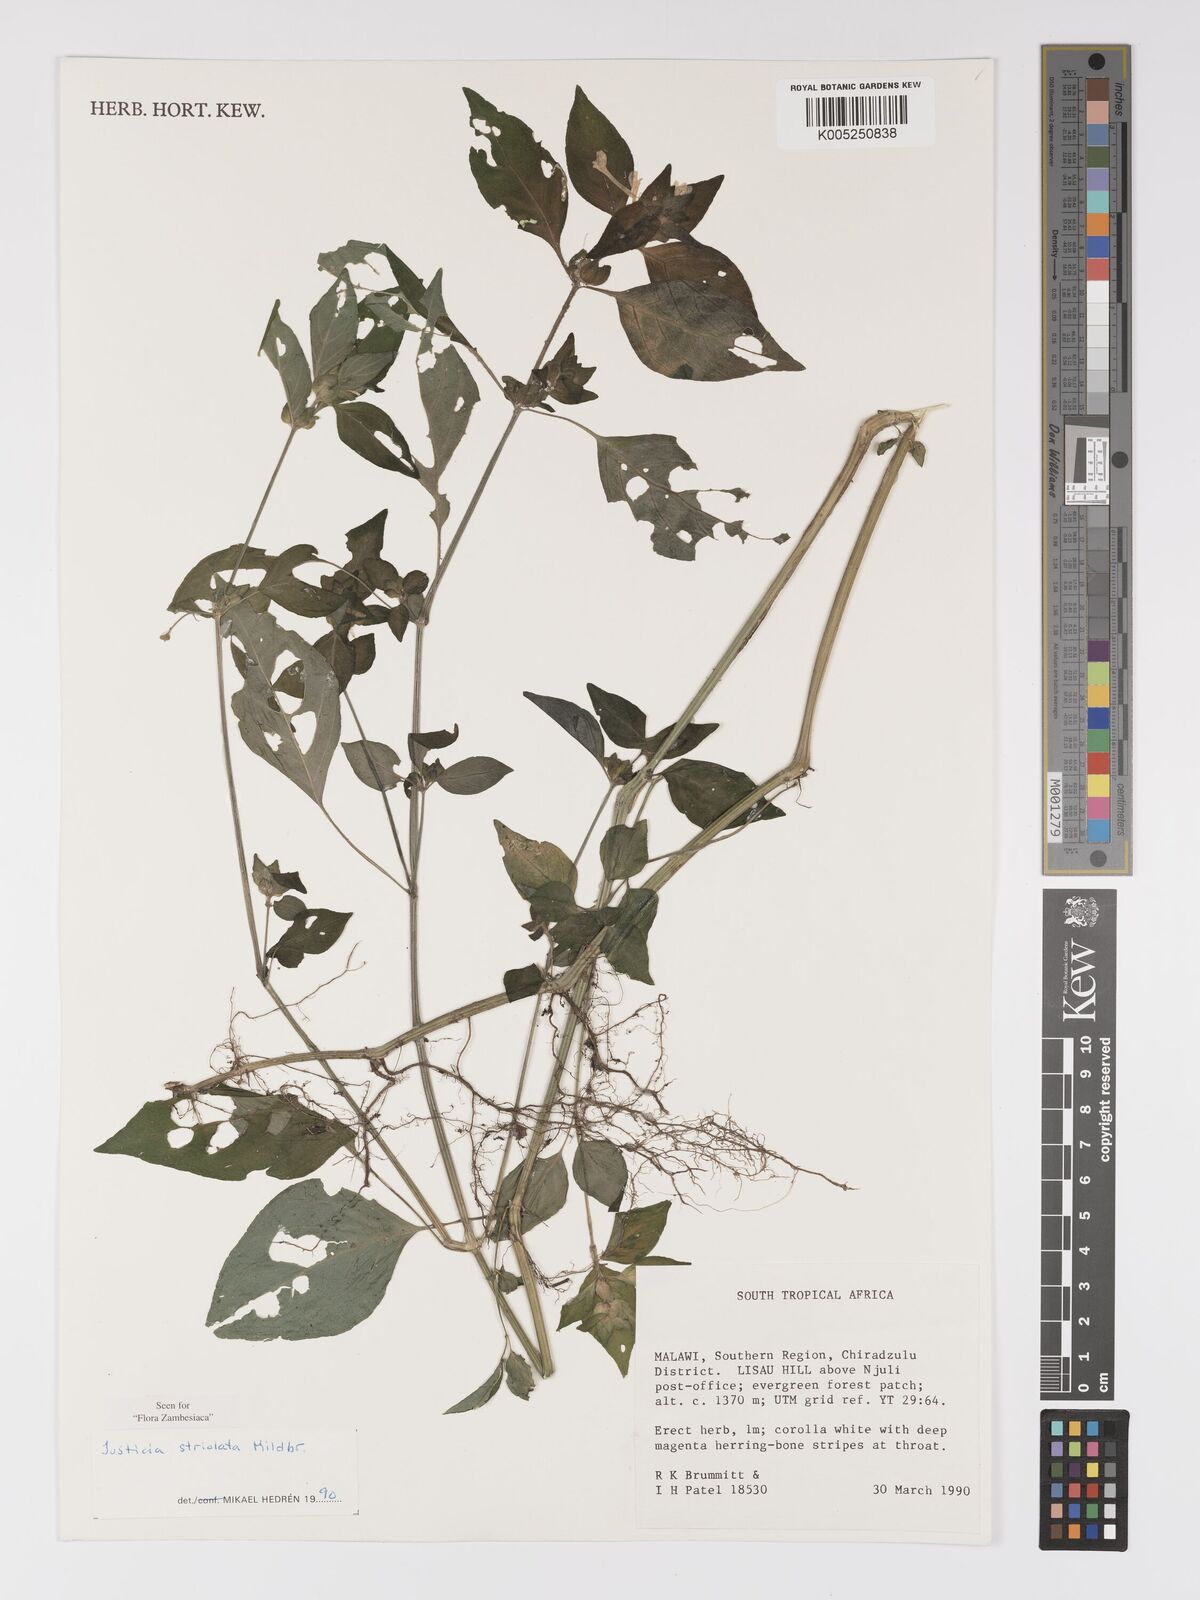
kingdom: Plantae
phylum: Tracheophyta
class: Magnoliopsida
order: Lamiales
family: Acanthaceae
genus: Justicia
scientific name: Justicia striolata
